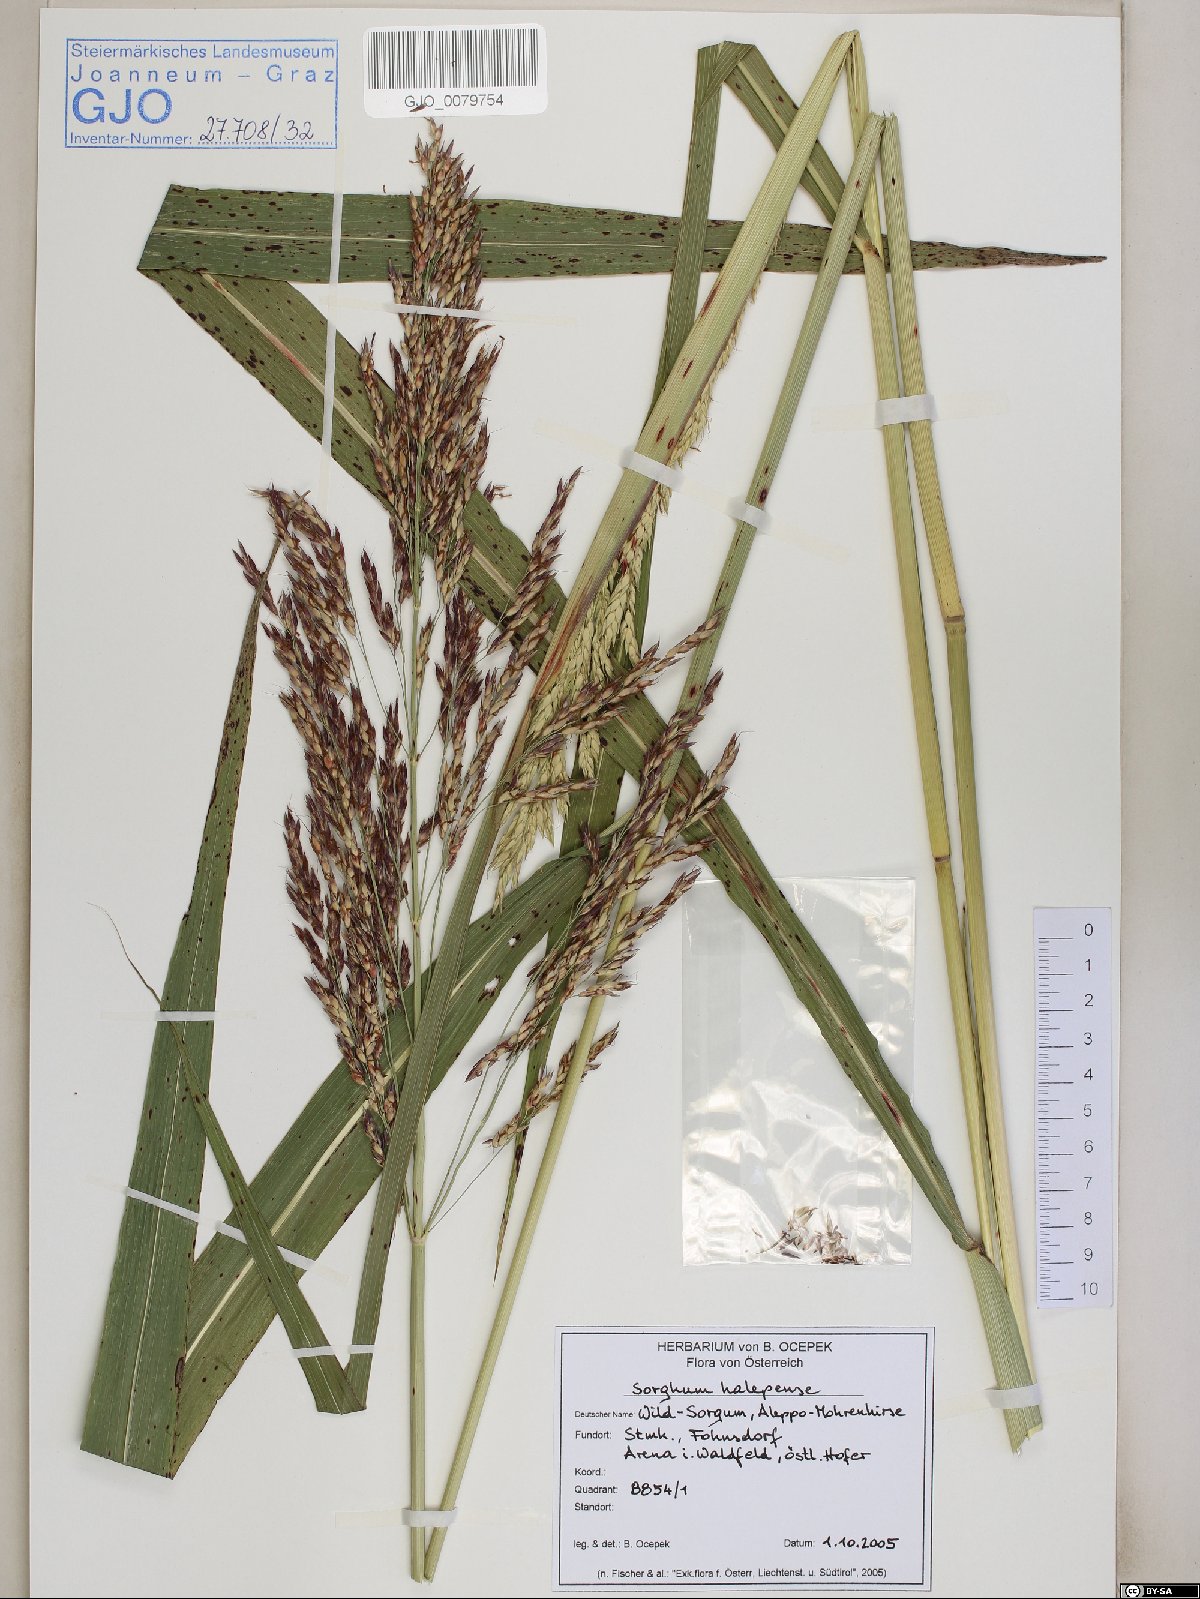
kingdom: Plantae
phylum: Tracheophyta
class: Liliopsida
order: Poales
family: Poaceae
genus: Sorghum
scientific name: Sorghum halepense
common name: Johnson-grass
